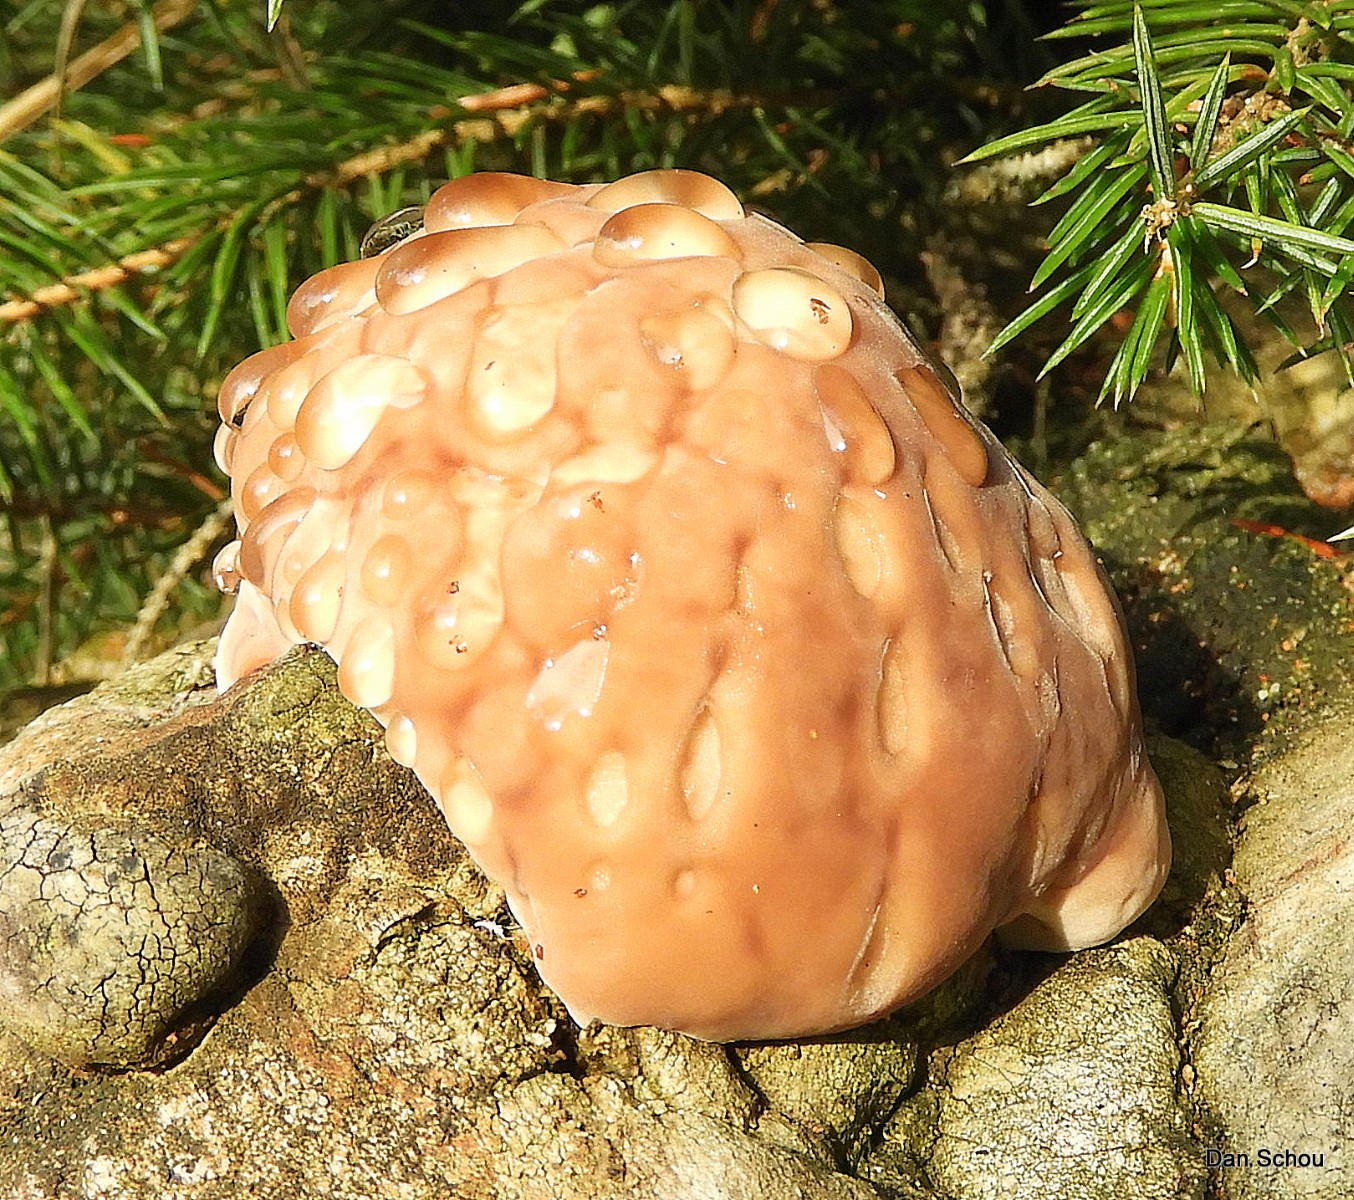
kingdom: Fungi
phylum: Basidiomycota
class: Agaricomycetes
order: Polyporales
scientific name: Polyporales
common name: poresvampordenen
